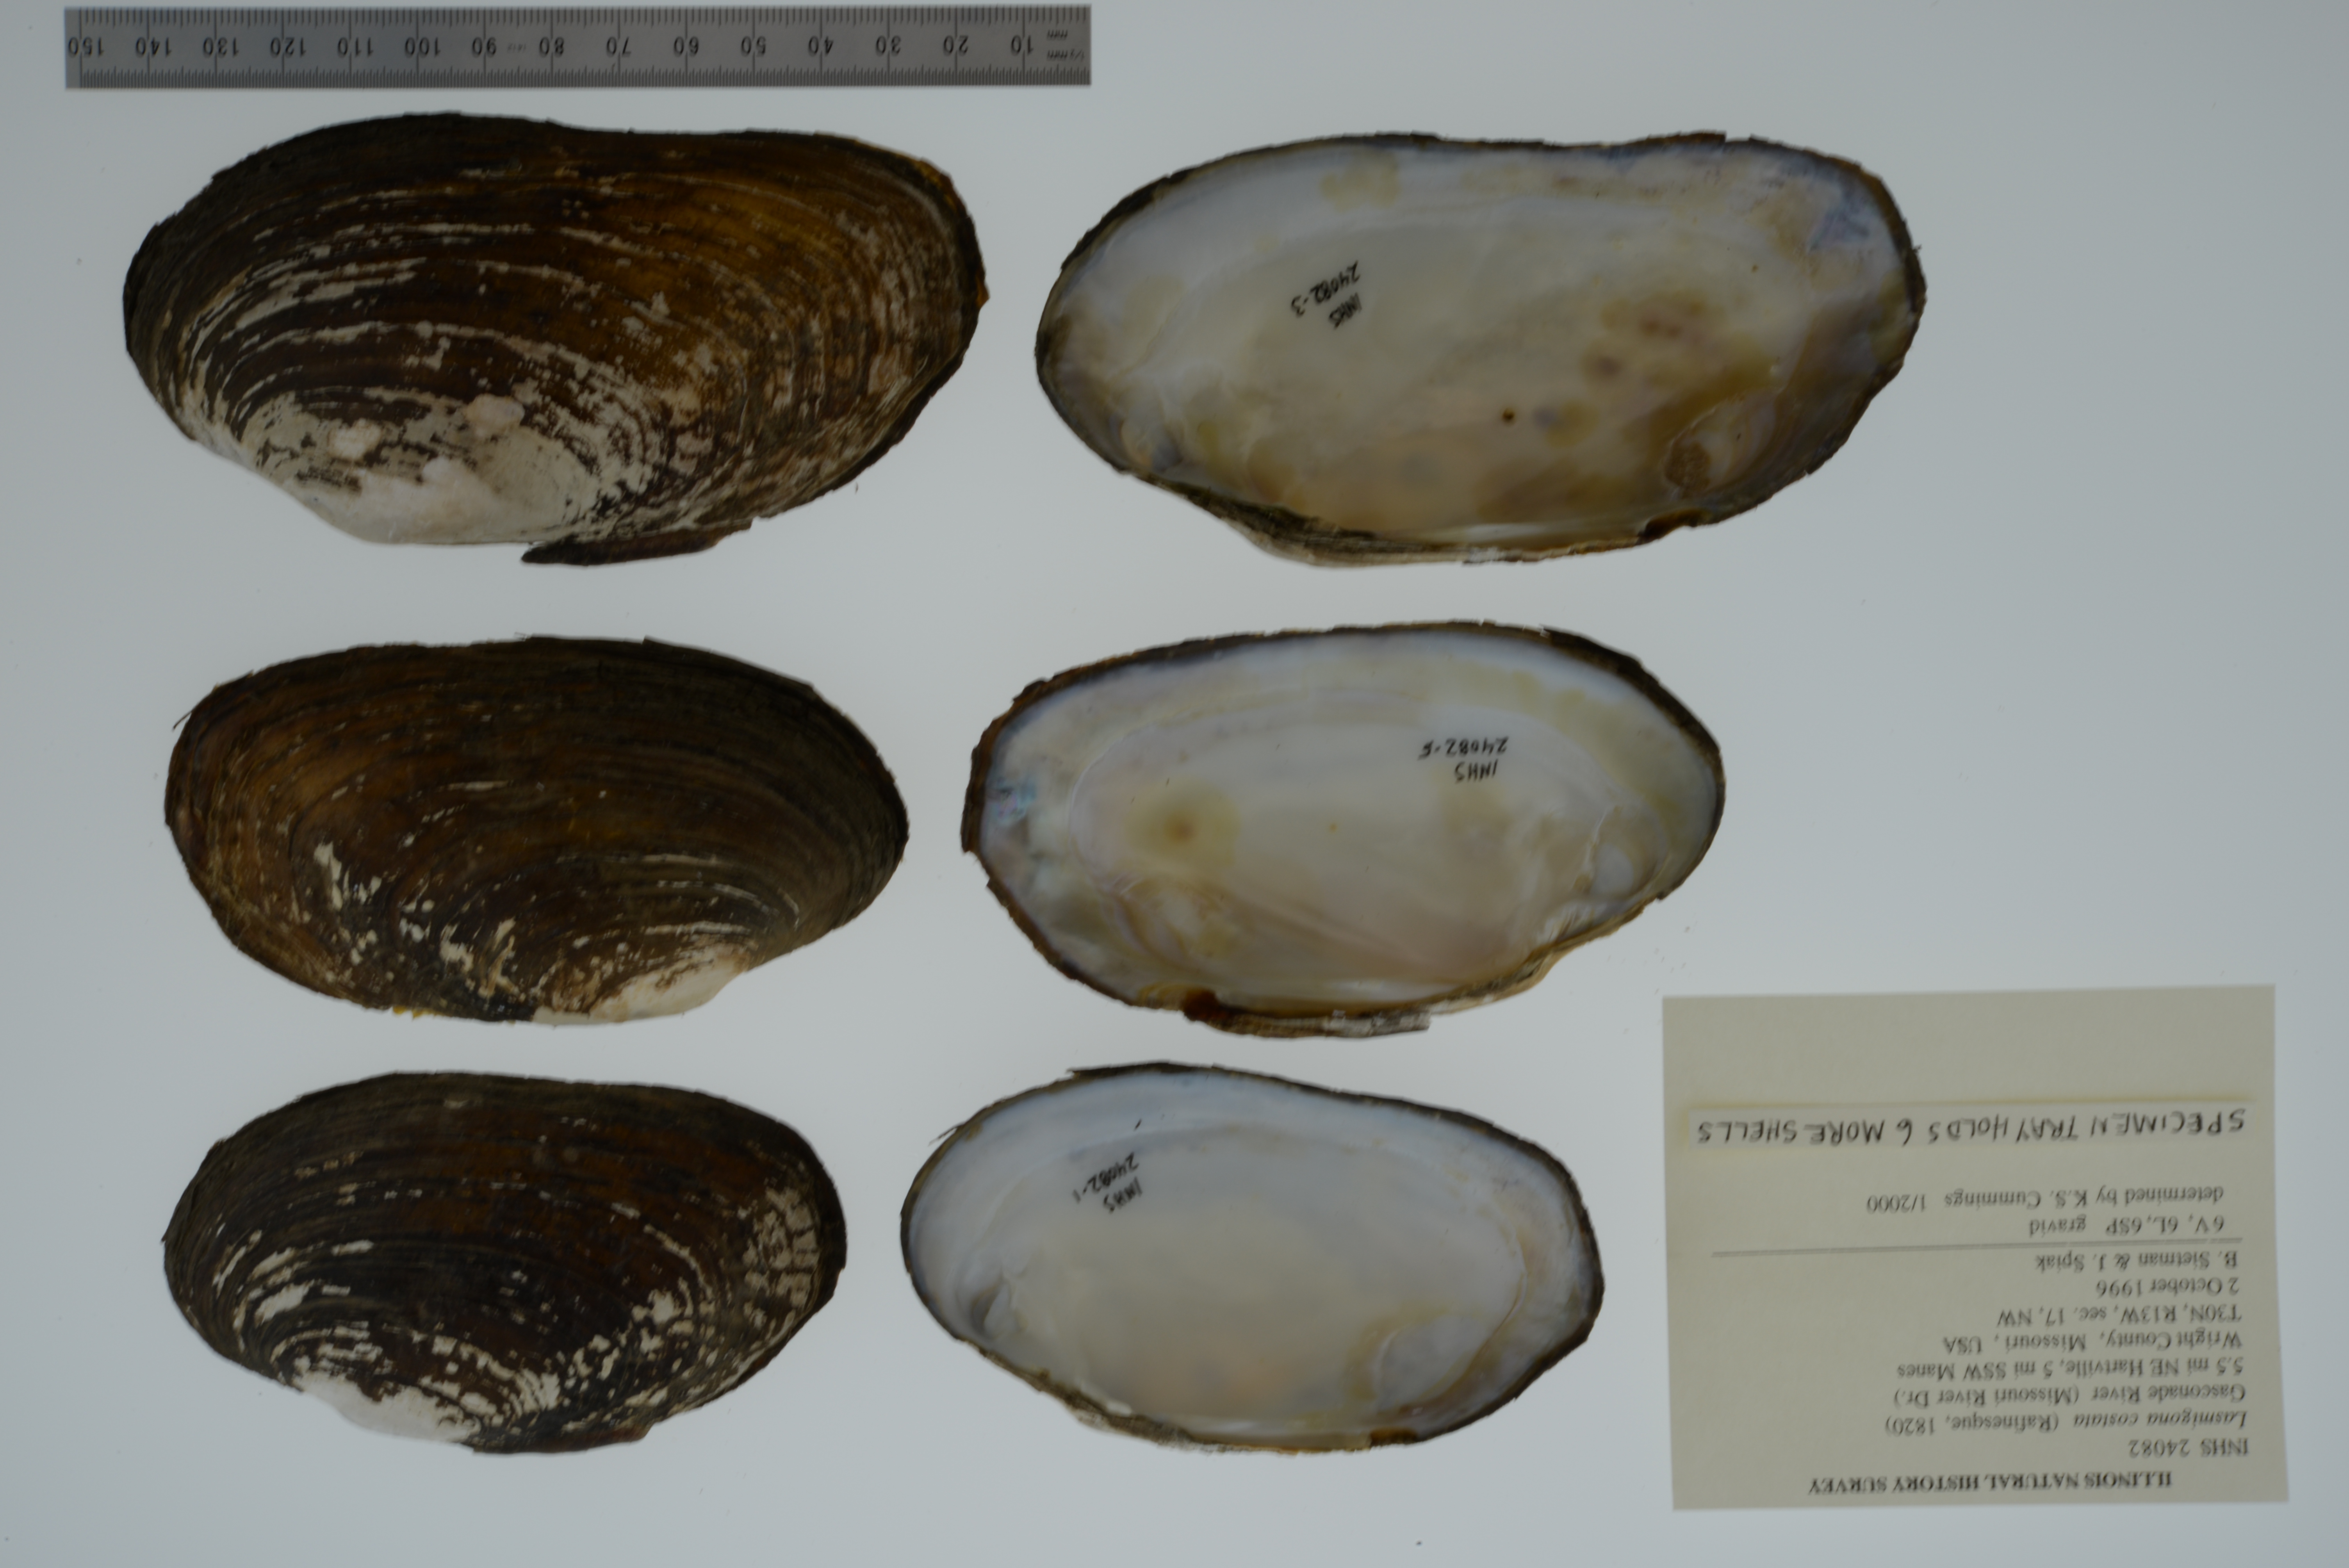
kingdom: Animalia
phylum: Mollusca
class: Bivalvia
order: Unionida
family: Unionidae
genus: Lasmigona
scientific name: Lasmigona costata
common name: Flutedshell
